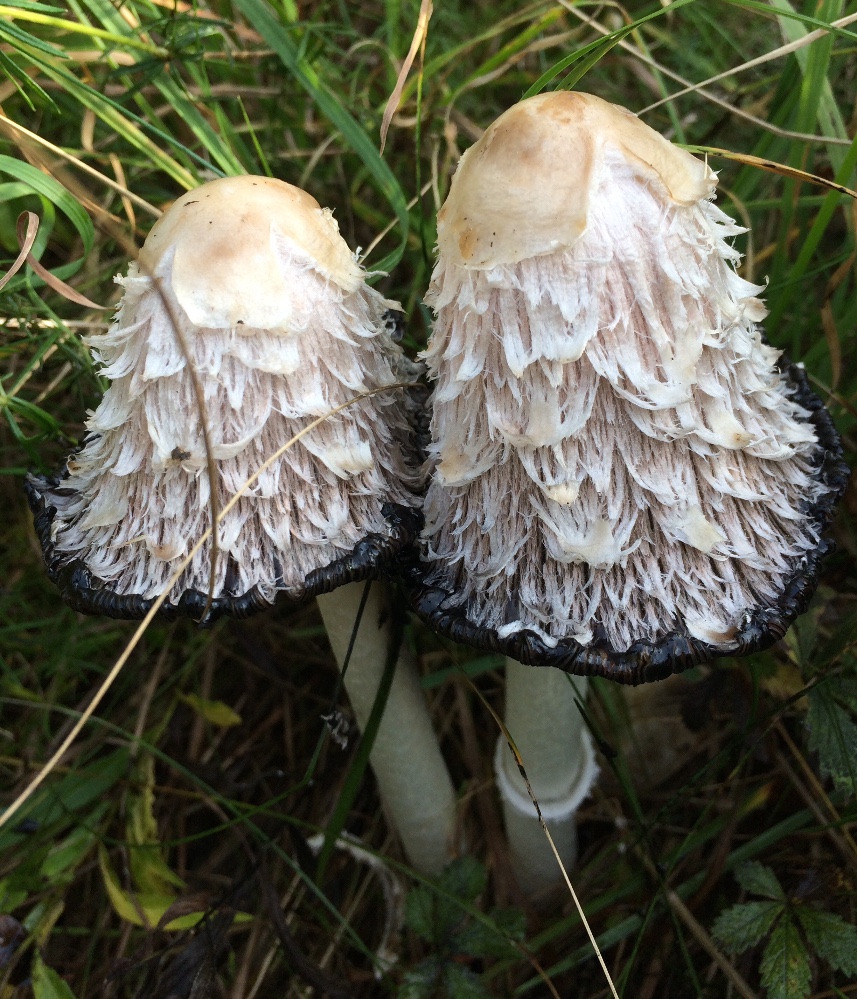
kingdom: Fungi
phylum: Basidiomycota
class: Agaricomycetes
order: Agaricales
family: Agaricaceae
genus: Coprinus
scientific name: Coprinus comatus
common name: stor parykhat
